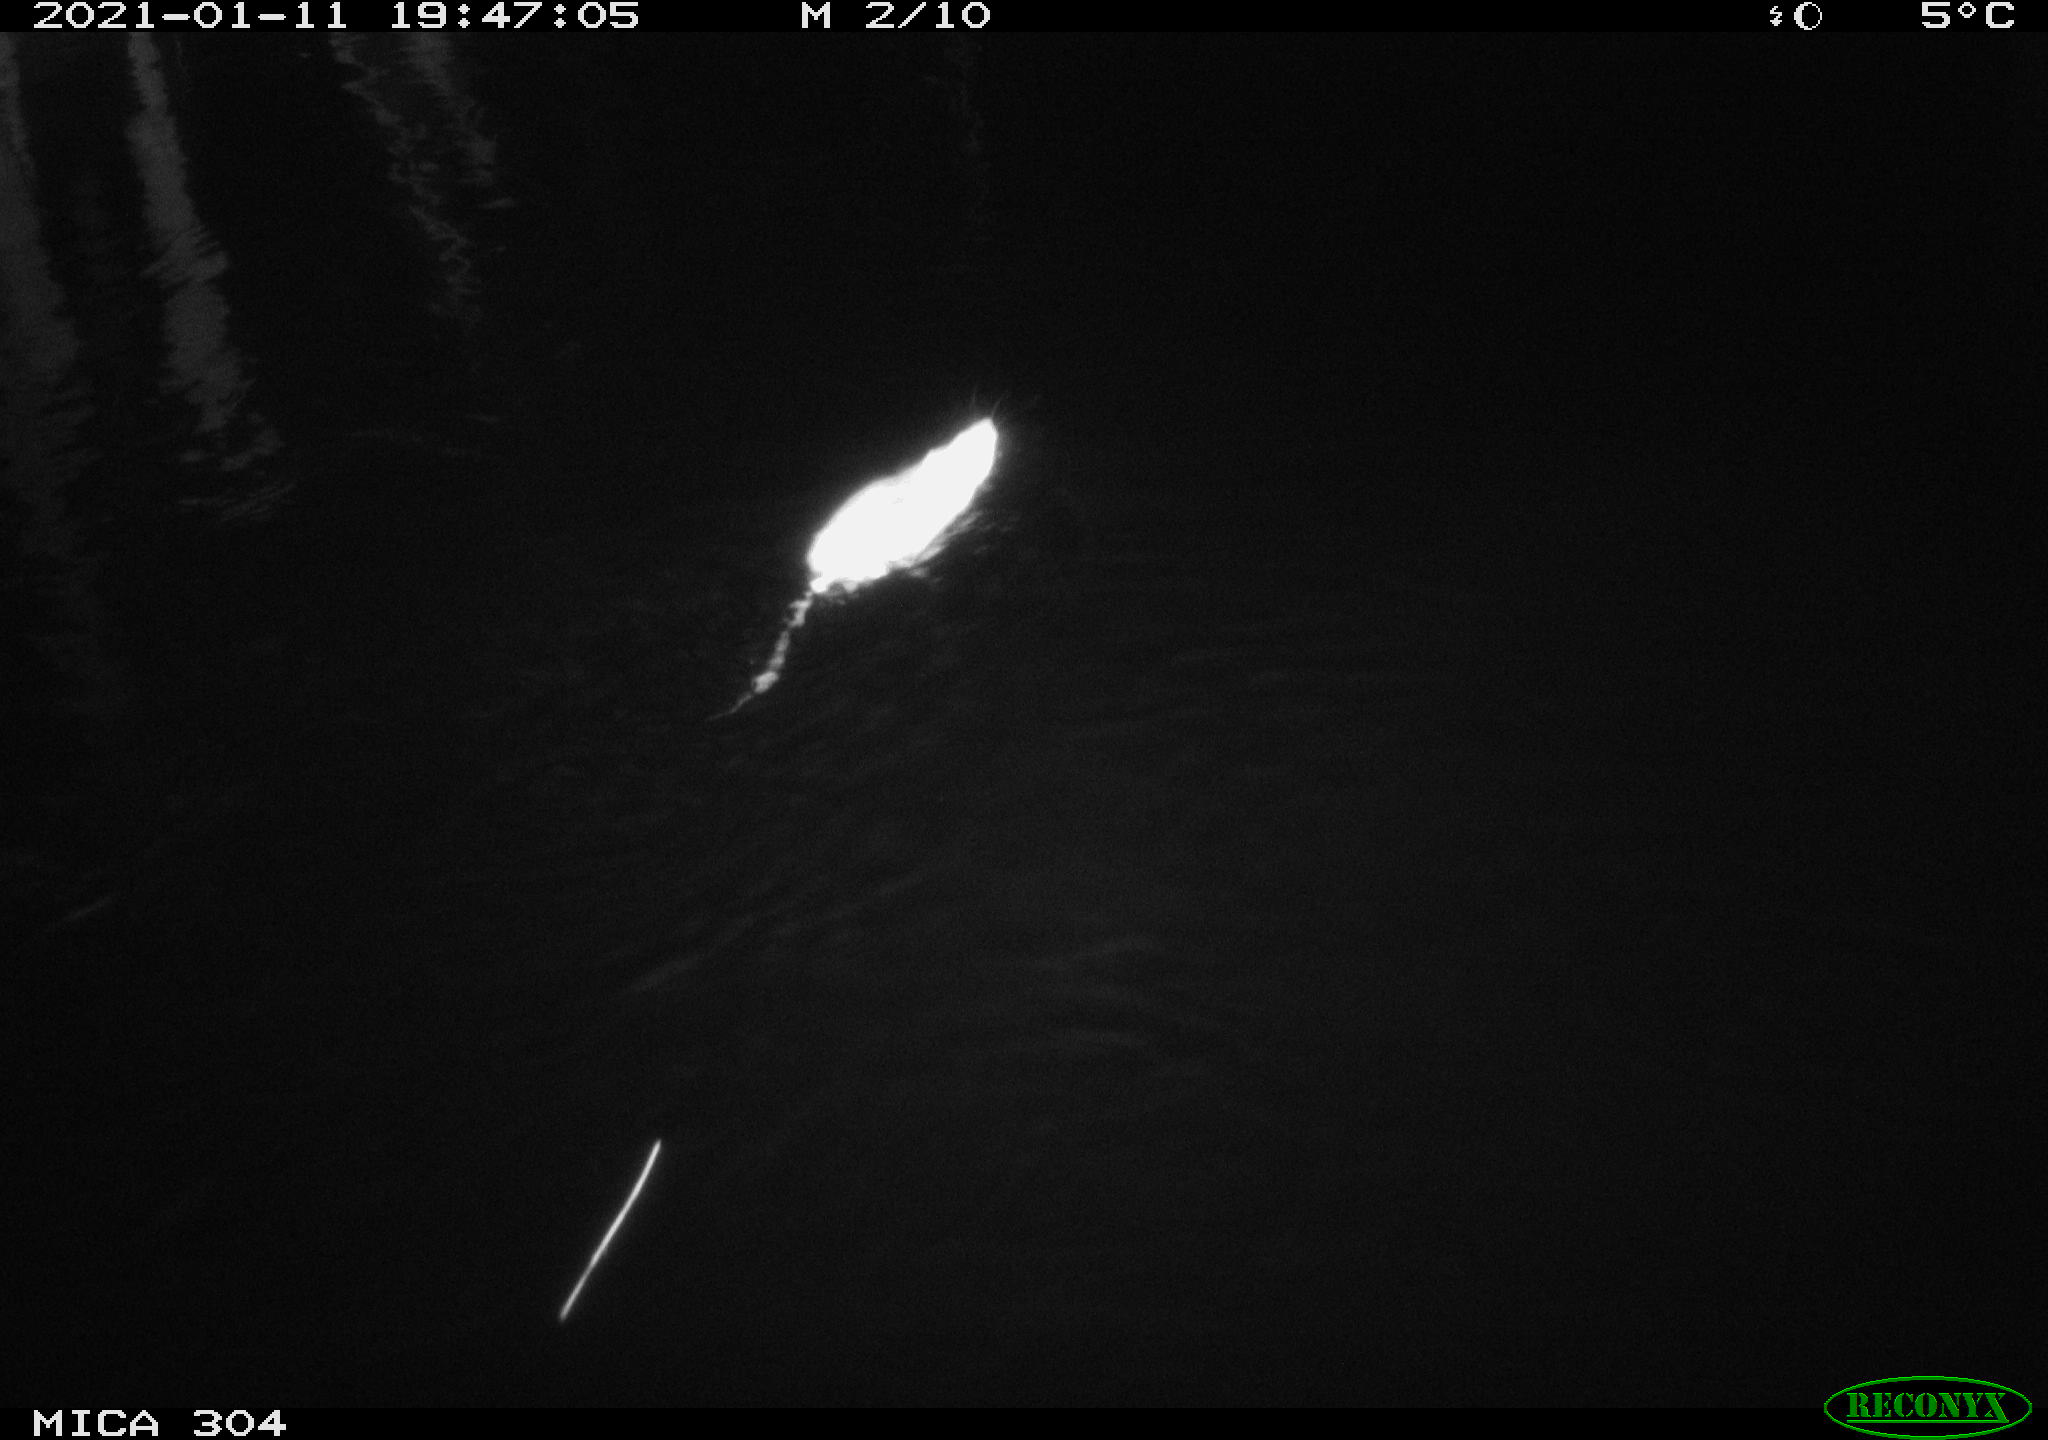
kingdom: Animalia
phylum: Chordata
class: Mammalia
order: Rodentia
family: Muridae
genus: Rattus
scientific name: Rattus norvegicus
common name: Brown rat
